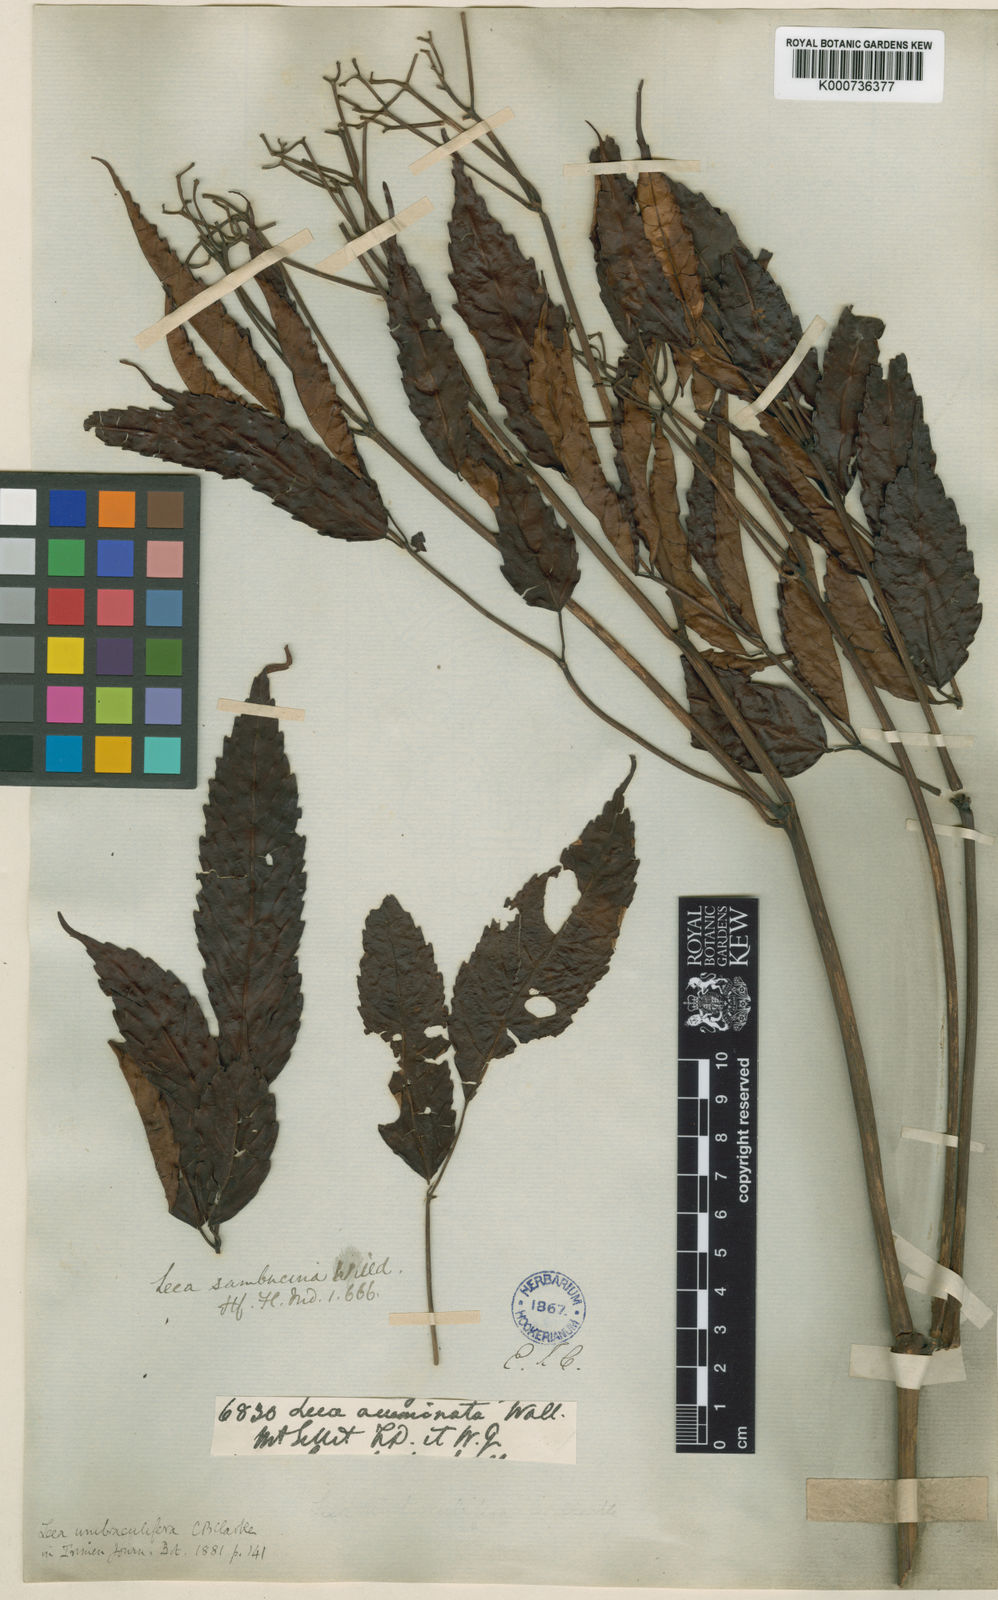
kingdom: Plantae
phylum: Tracheophyta
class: Magnoliopsida
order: Vitales
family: Vitaceae
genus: Leea
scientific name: Leea indica
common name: Bandicoot-berry
